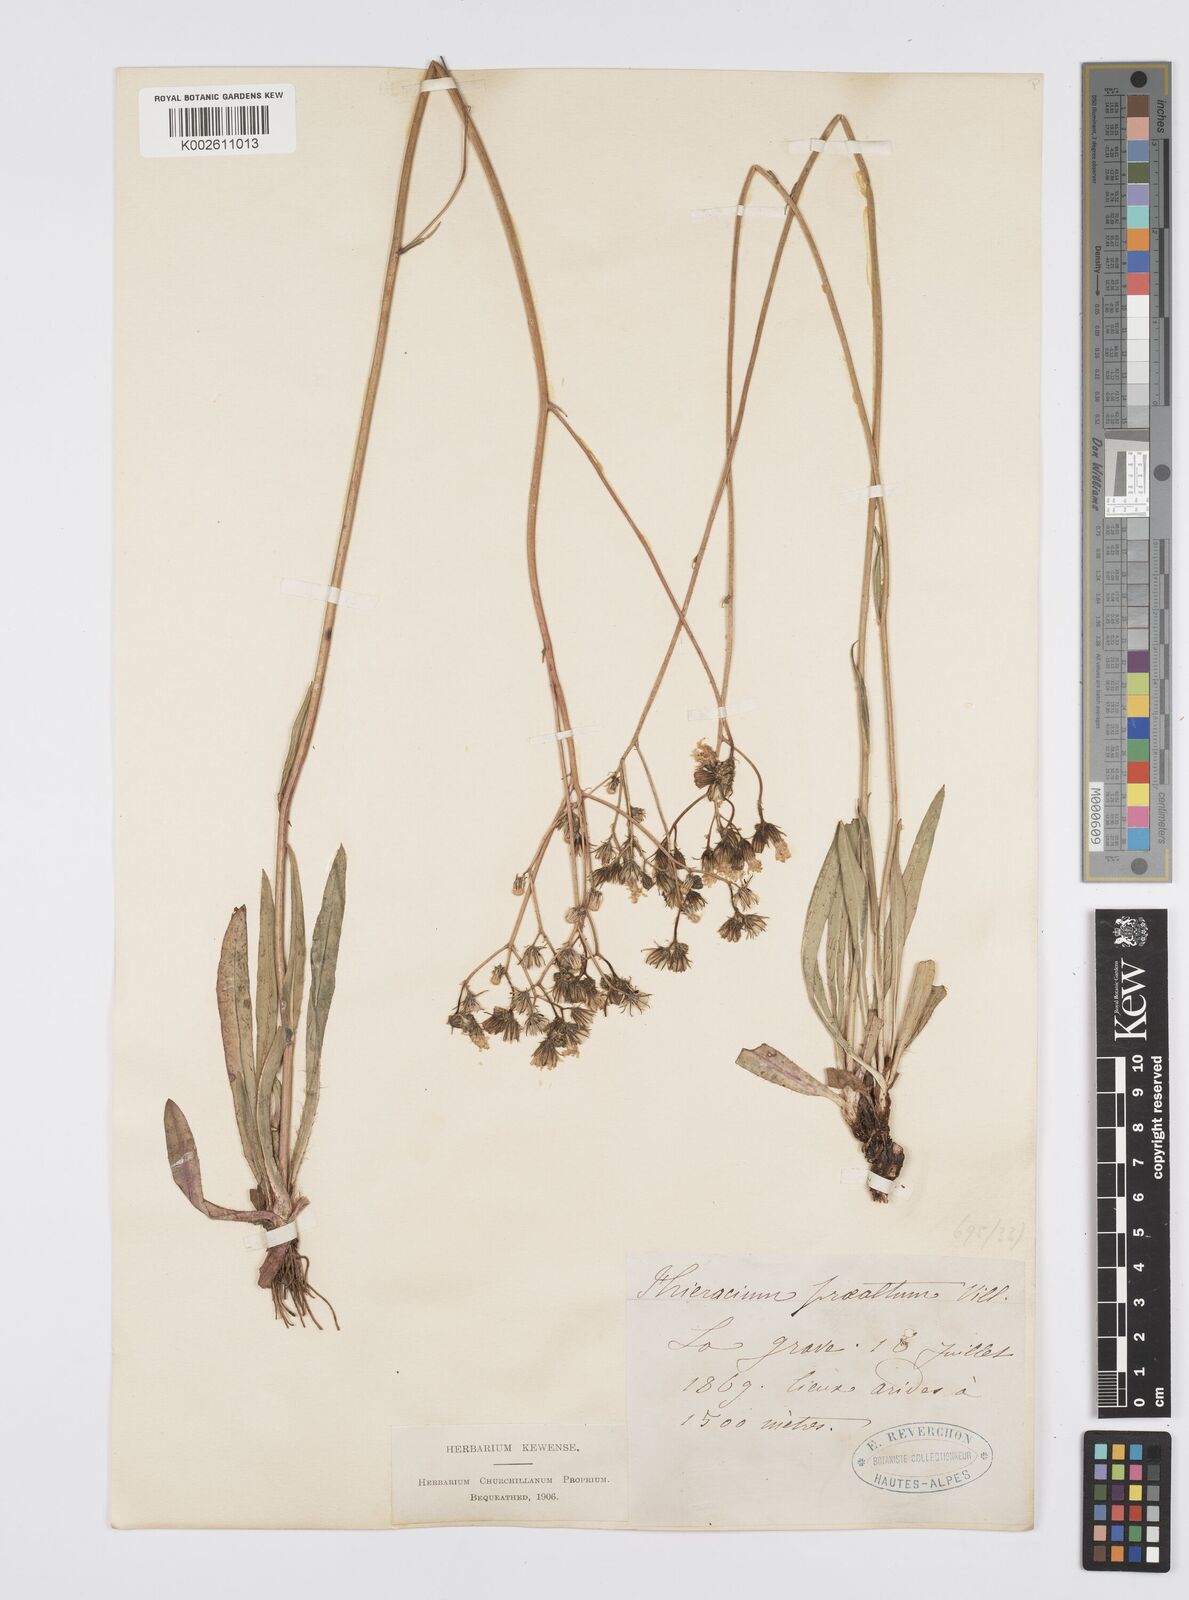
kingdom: Plantae
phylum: Tracheophyta
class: Magnoliopsida
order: Asterales
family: Asteraceae
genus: Pilosella
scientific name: Pilosella piloselloides
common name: Glaucous king-devil
